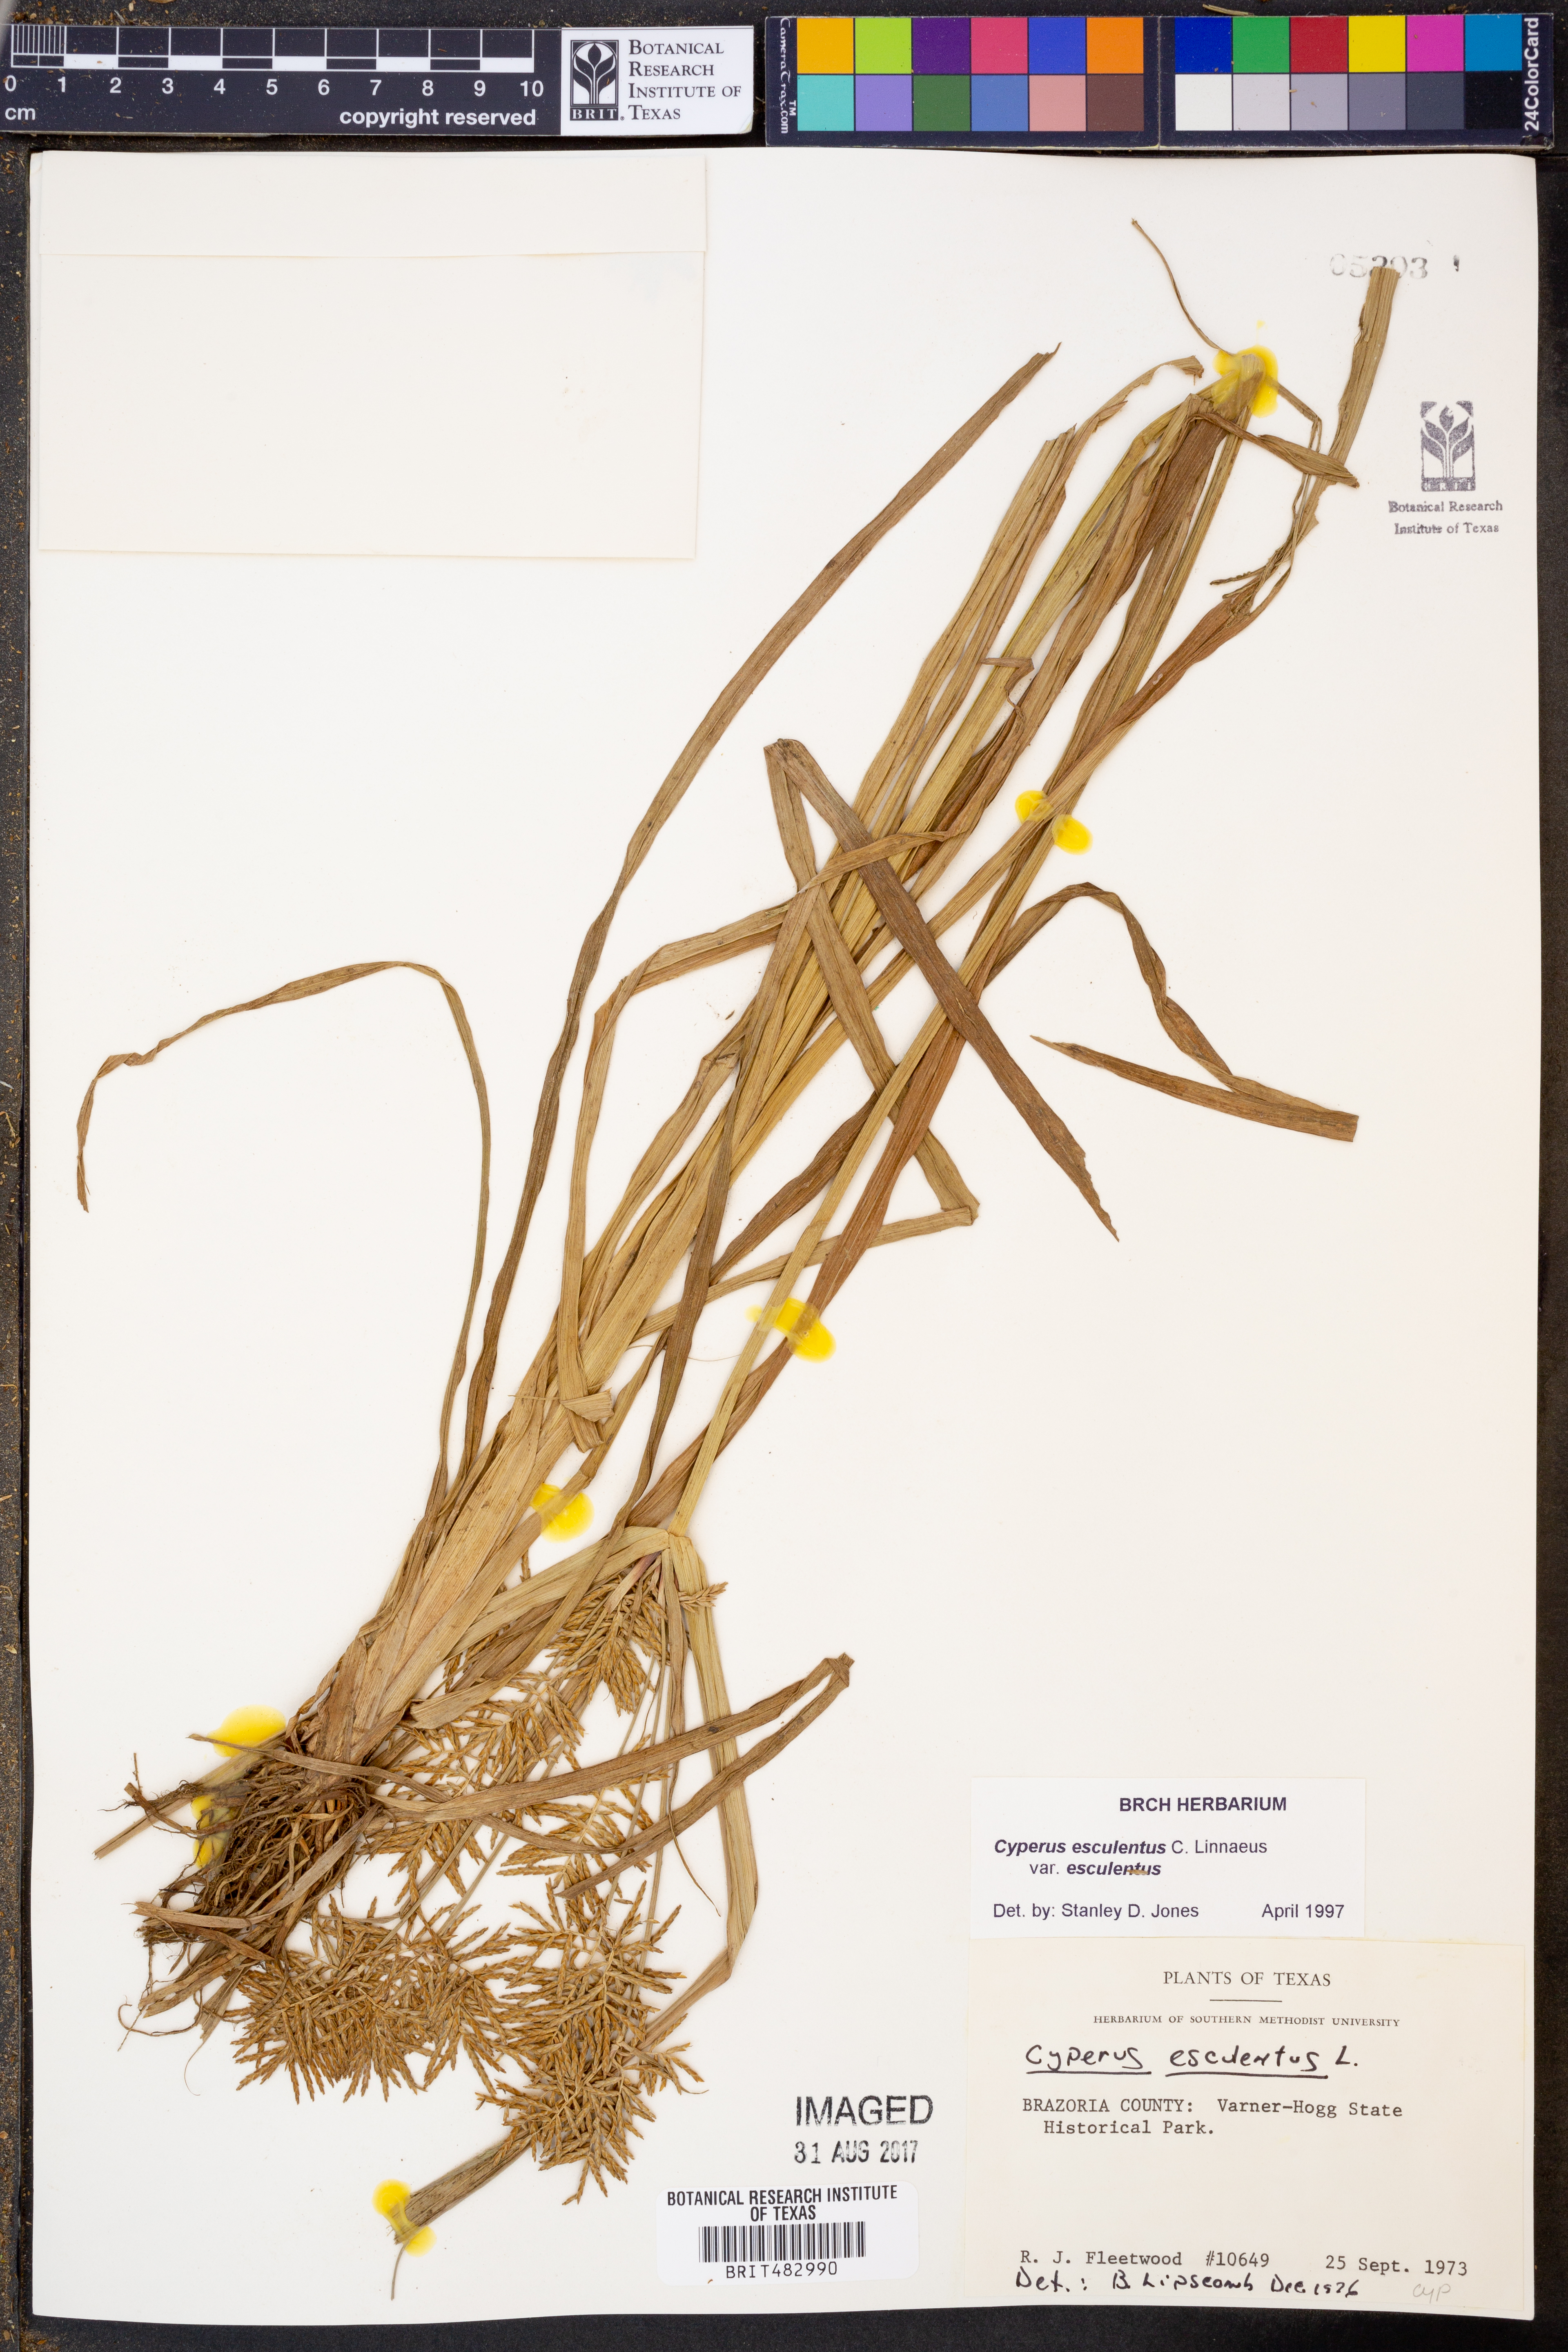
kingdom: Plantae
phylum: Tracheophyta
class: Liliopsida
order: Poales
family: Cyperaceae
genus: Cyperus
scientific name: Cyperus esculentus
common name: Yellow nutsedge
